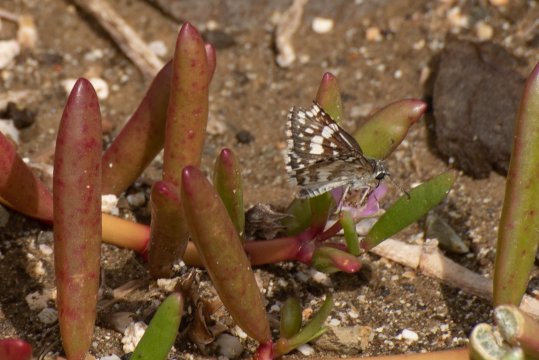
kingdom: Animalia
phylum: Arthropoda
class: Insecta
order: Lepidoptera
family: Hesperiidae
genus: Pyrgus
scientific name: Pyrgus communis
